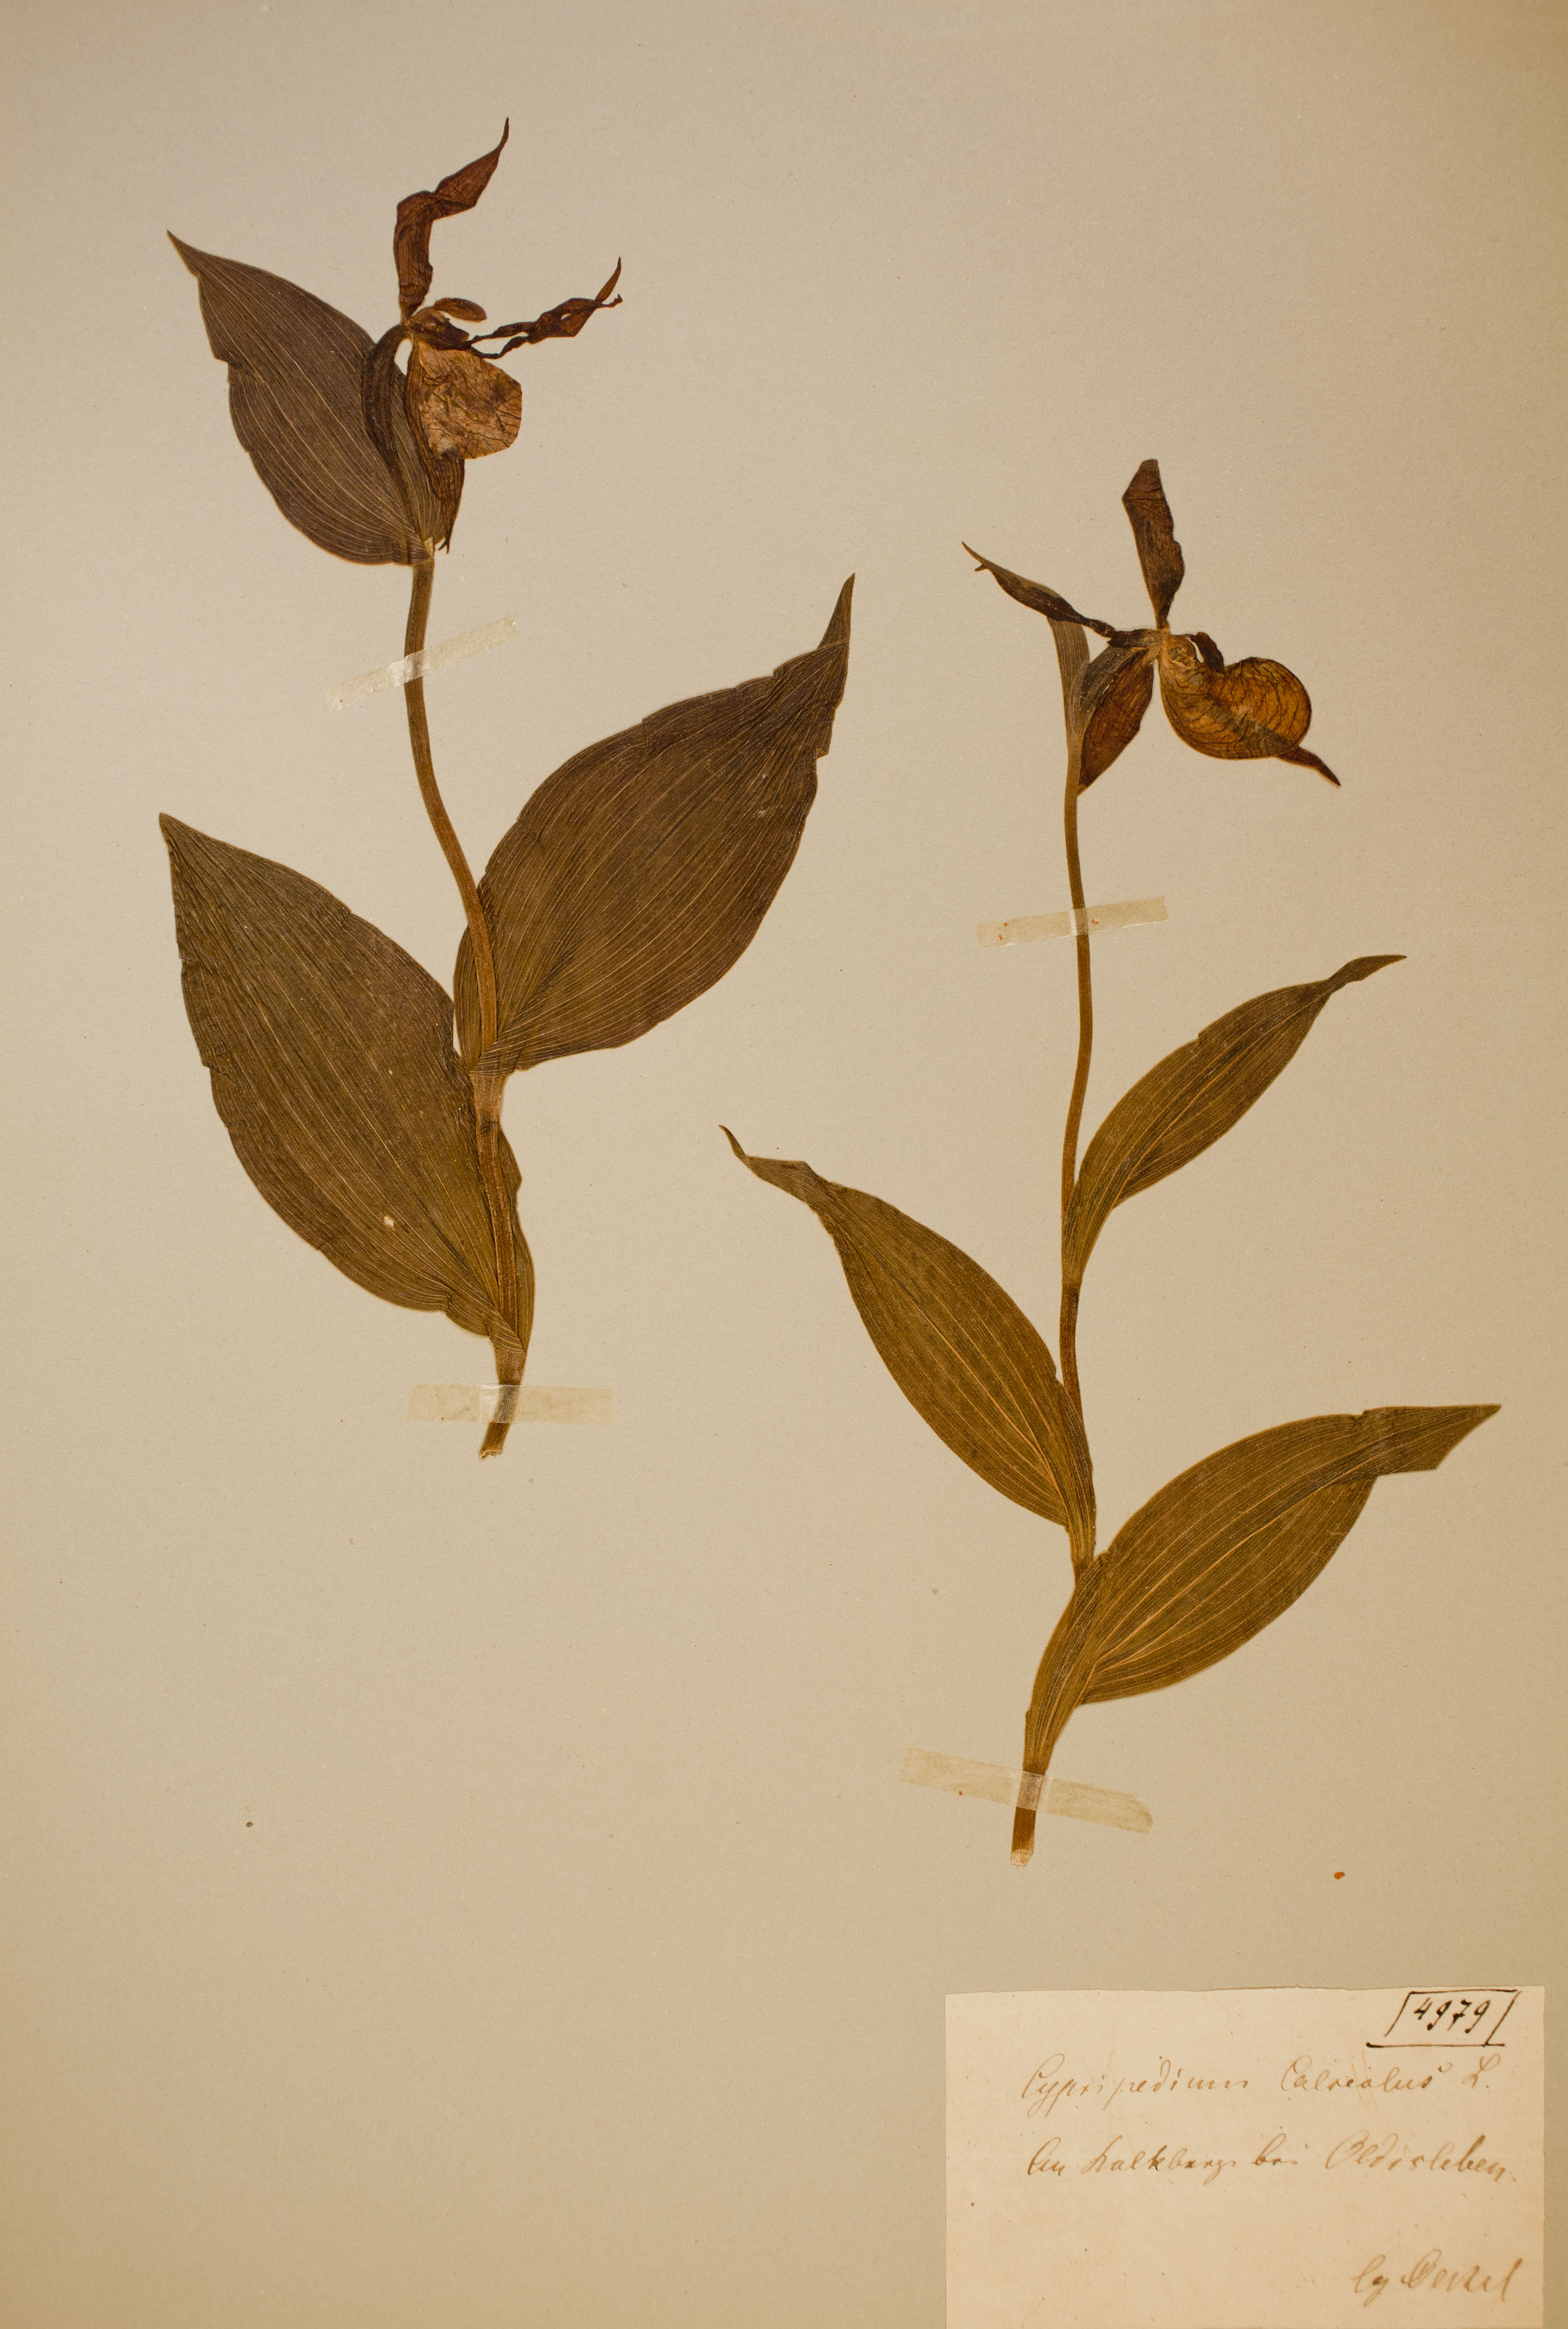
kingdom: Plantae
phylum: Tracheophyta
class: Liliopsida
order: Asparagales
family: Orchidaceae
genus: Cypripedium
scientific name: Cypripedium calceolus
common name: Lady's-slipper
